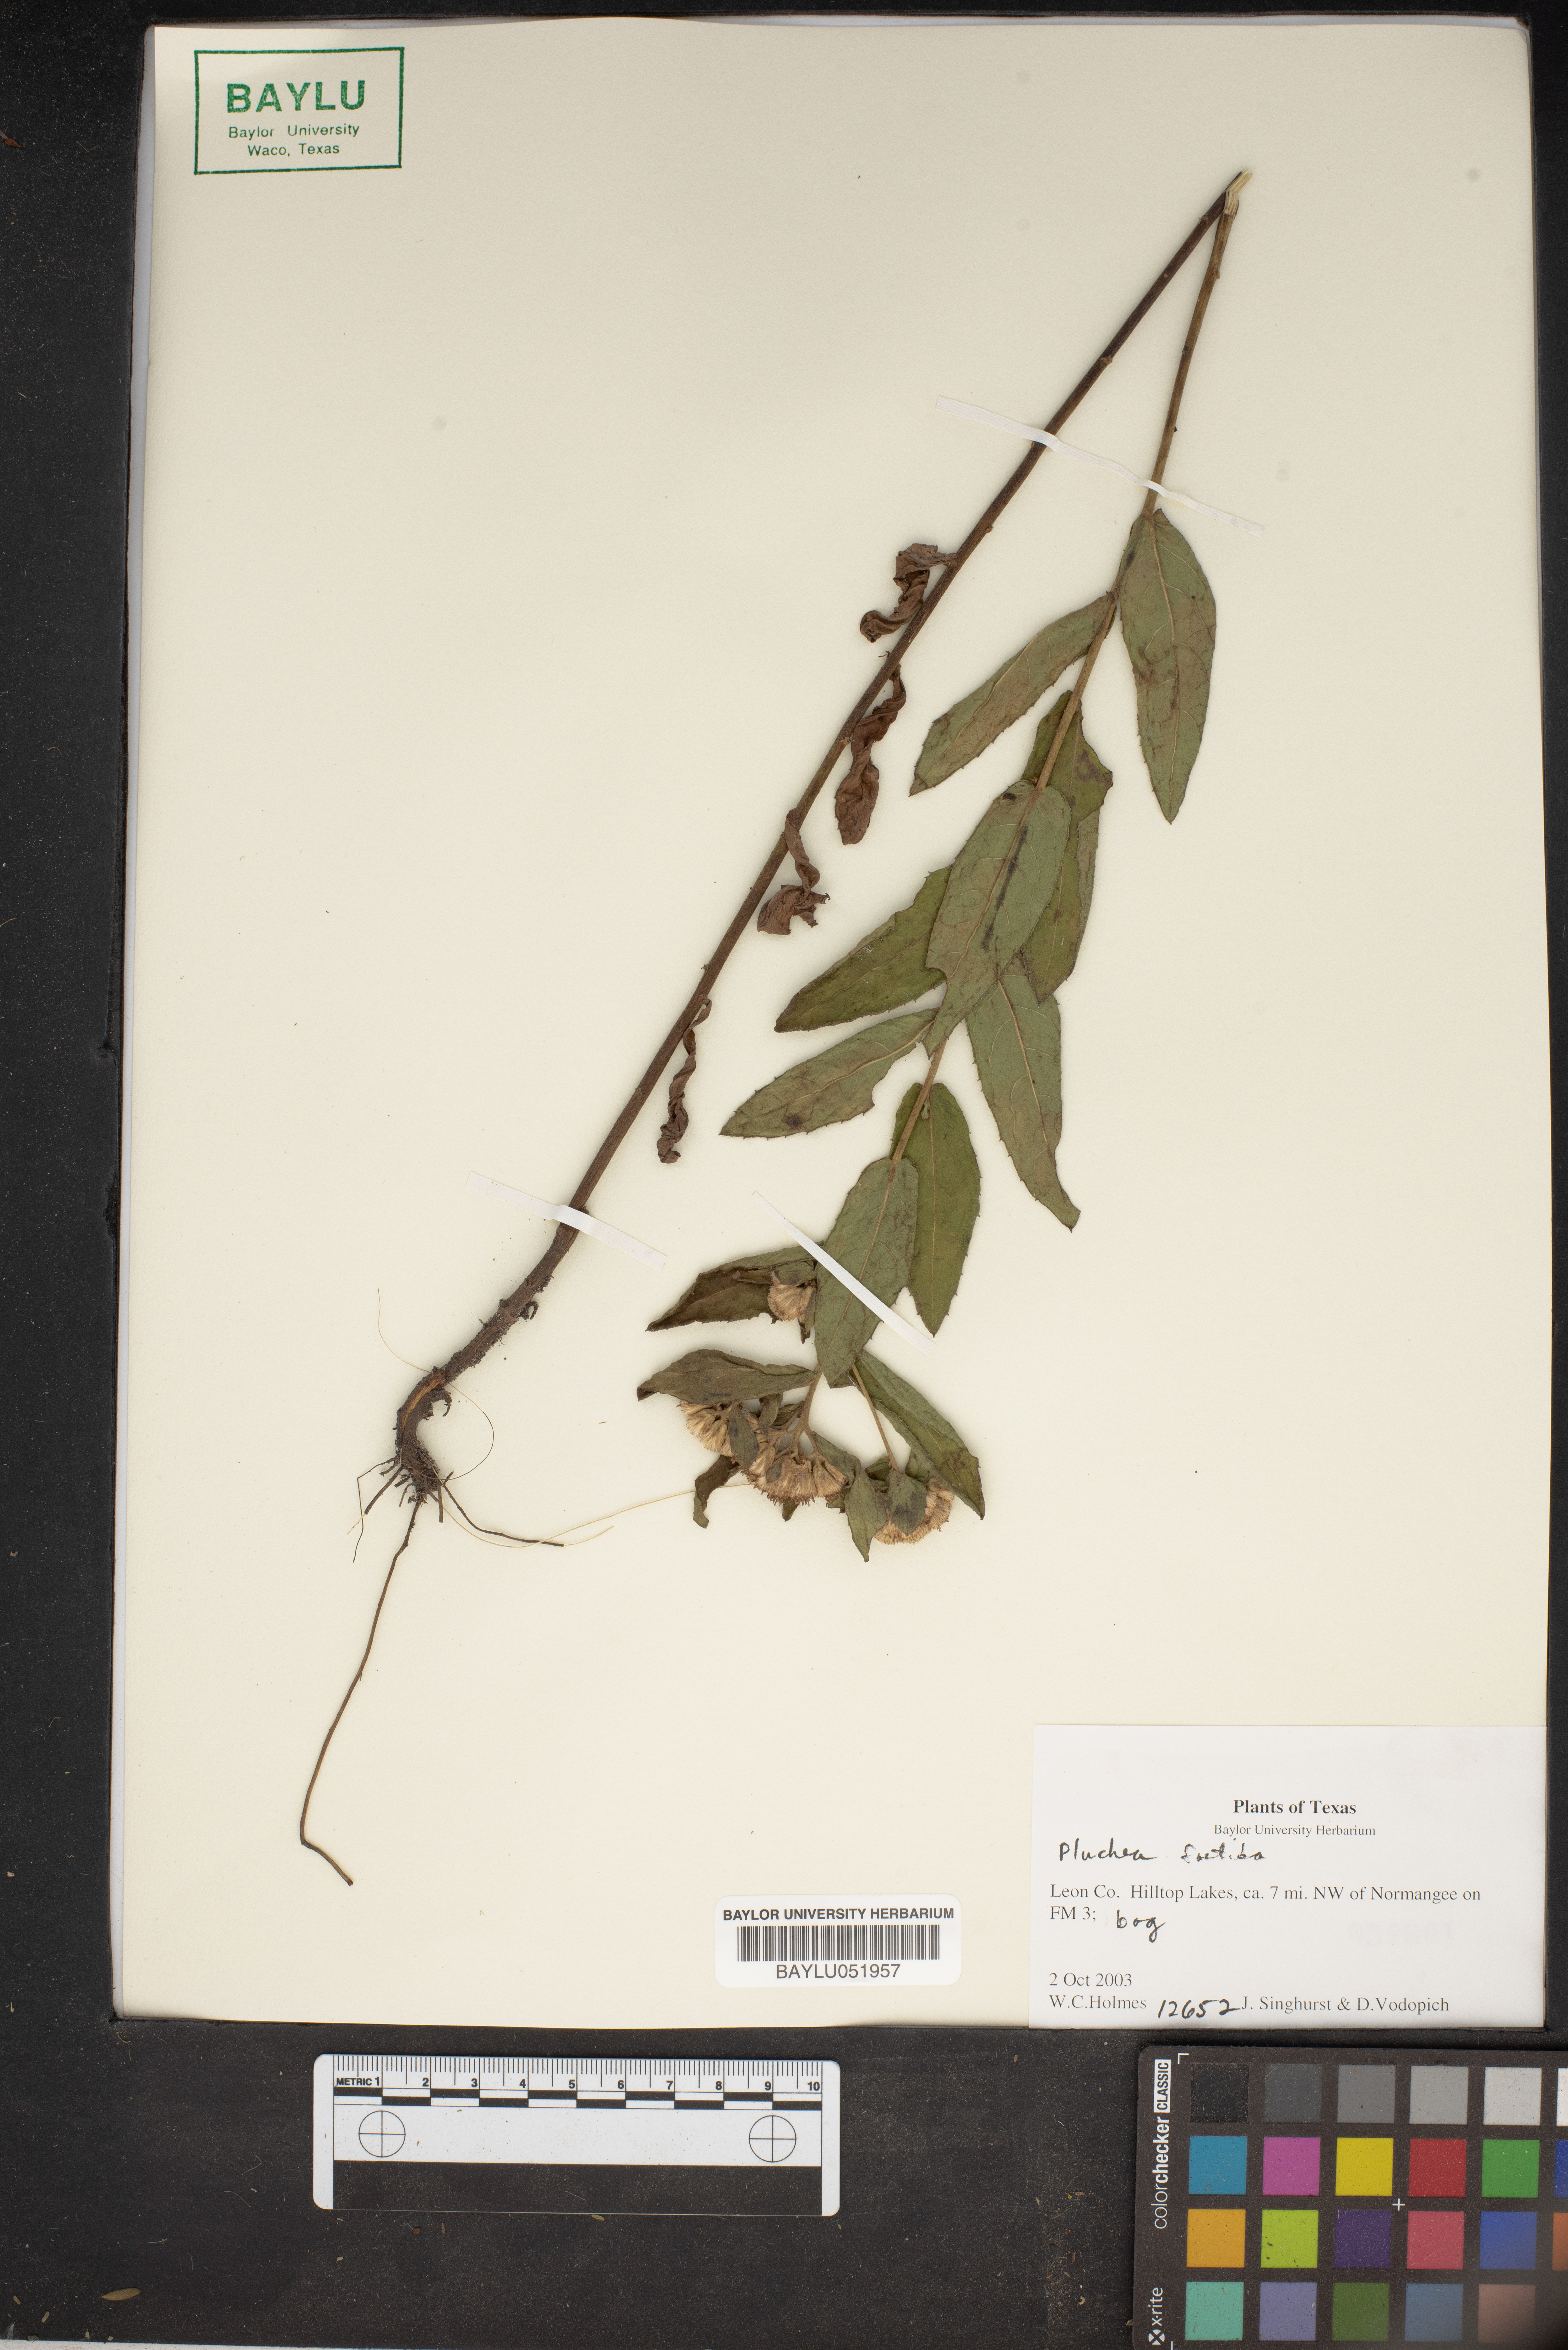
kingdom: Plantae
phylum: Tracheophyta
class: Magnoliopsida
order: Asterales
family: Asteraceae
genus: Pluchea
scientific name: Pluchea foetida
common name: Stinking camphorweed
